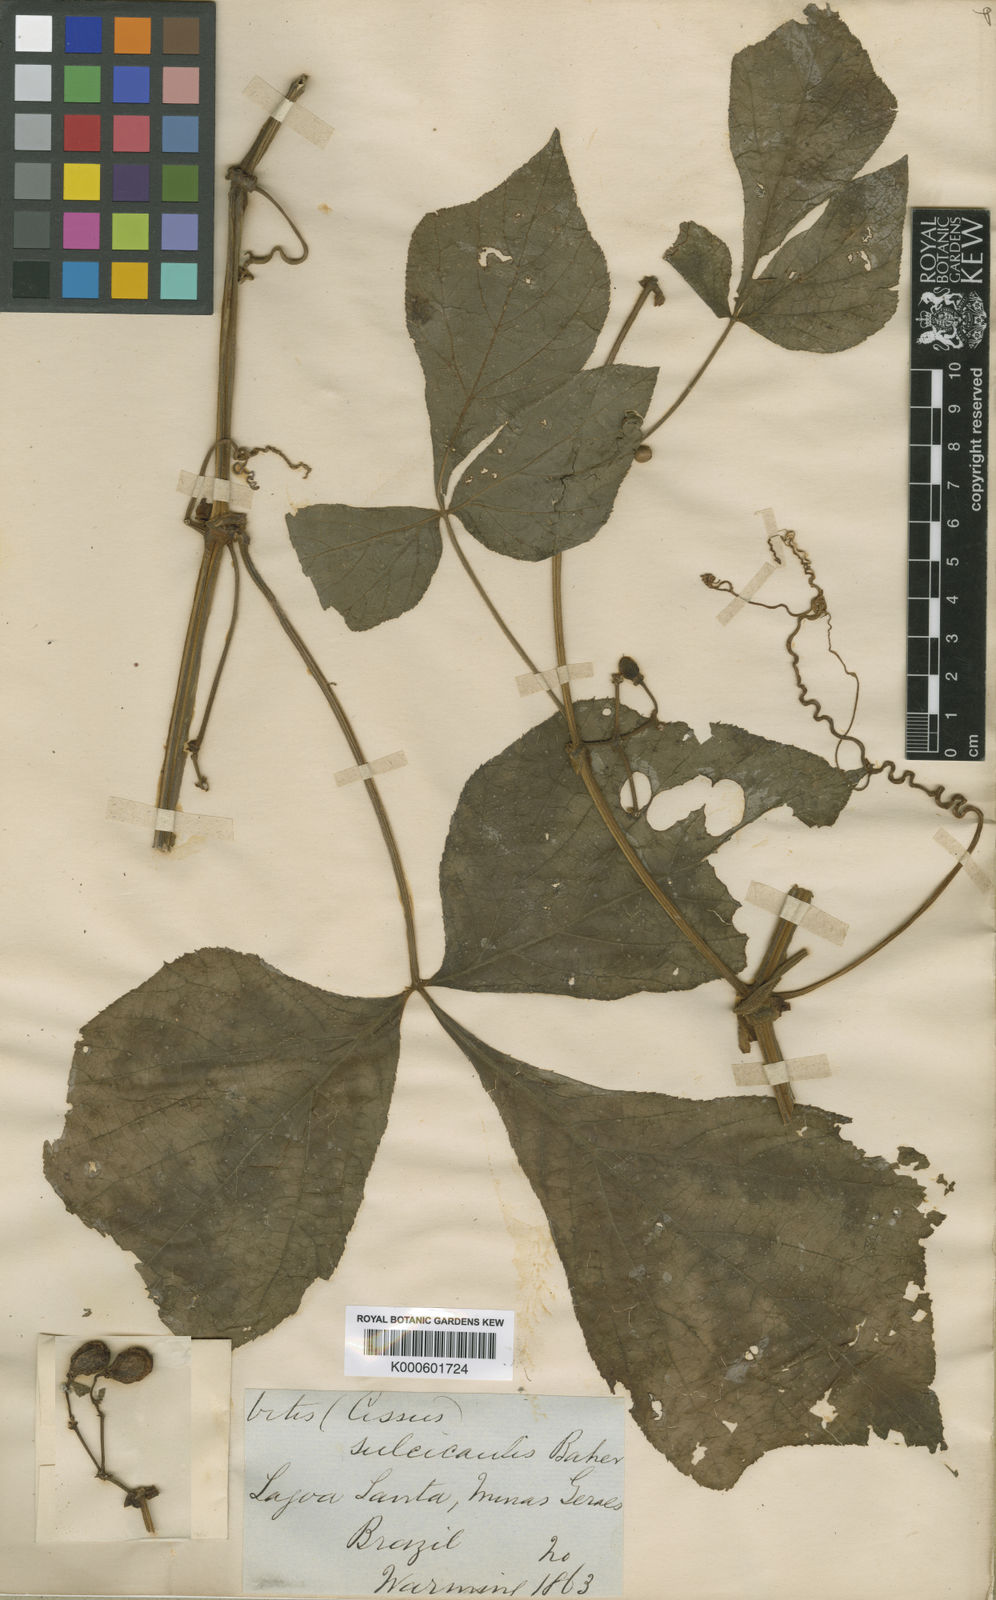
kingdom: Plantae
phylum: Tracheophyta
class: Magnoliopsida
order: Vitales
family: Vitaceae
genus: Cissus
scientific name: Cissus sulcicaulis
